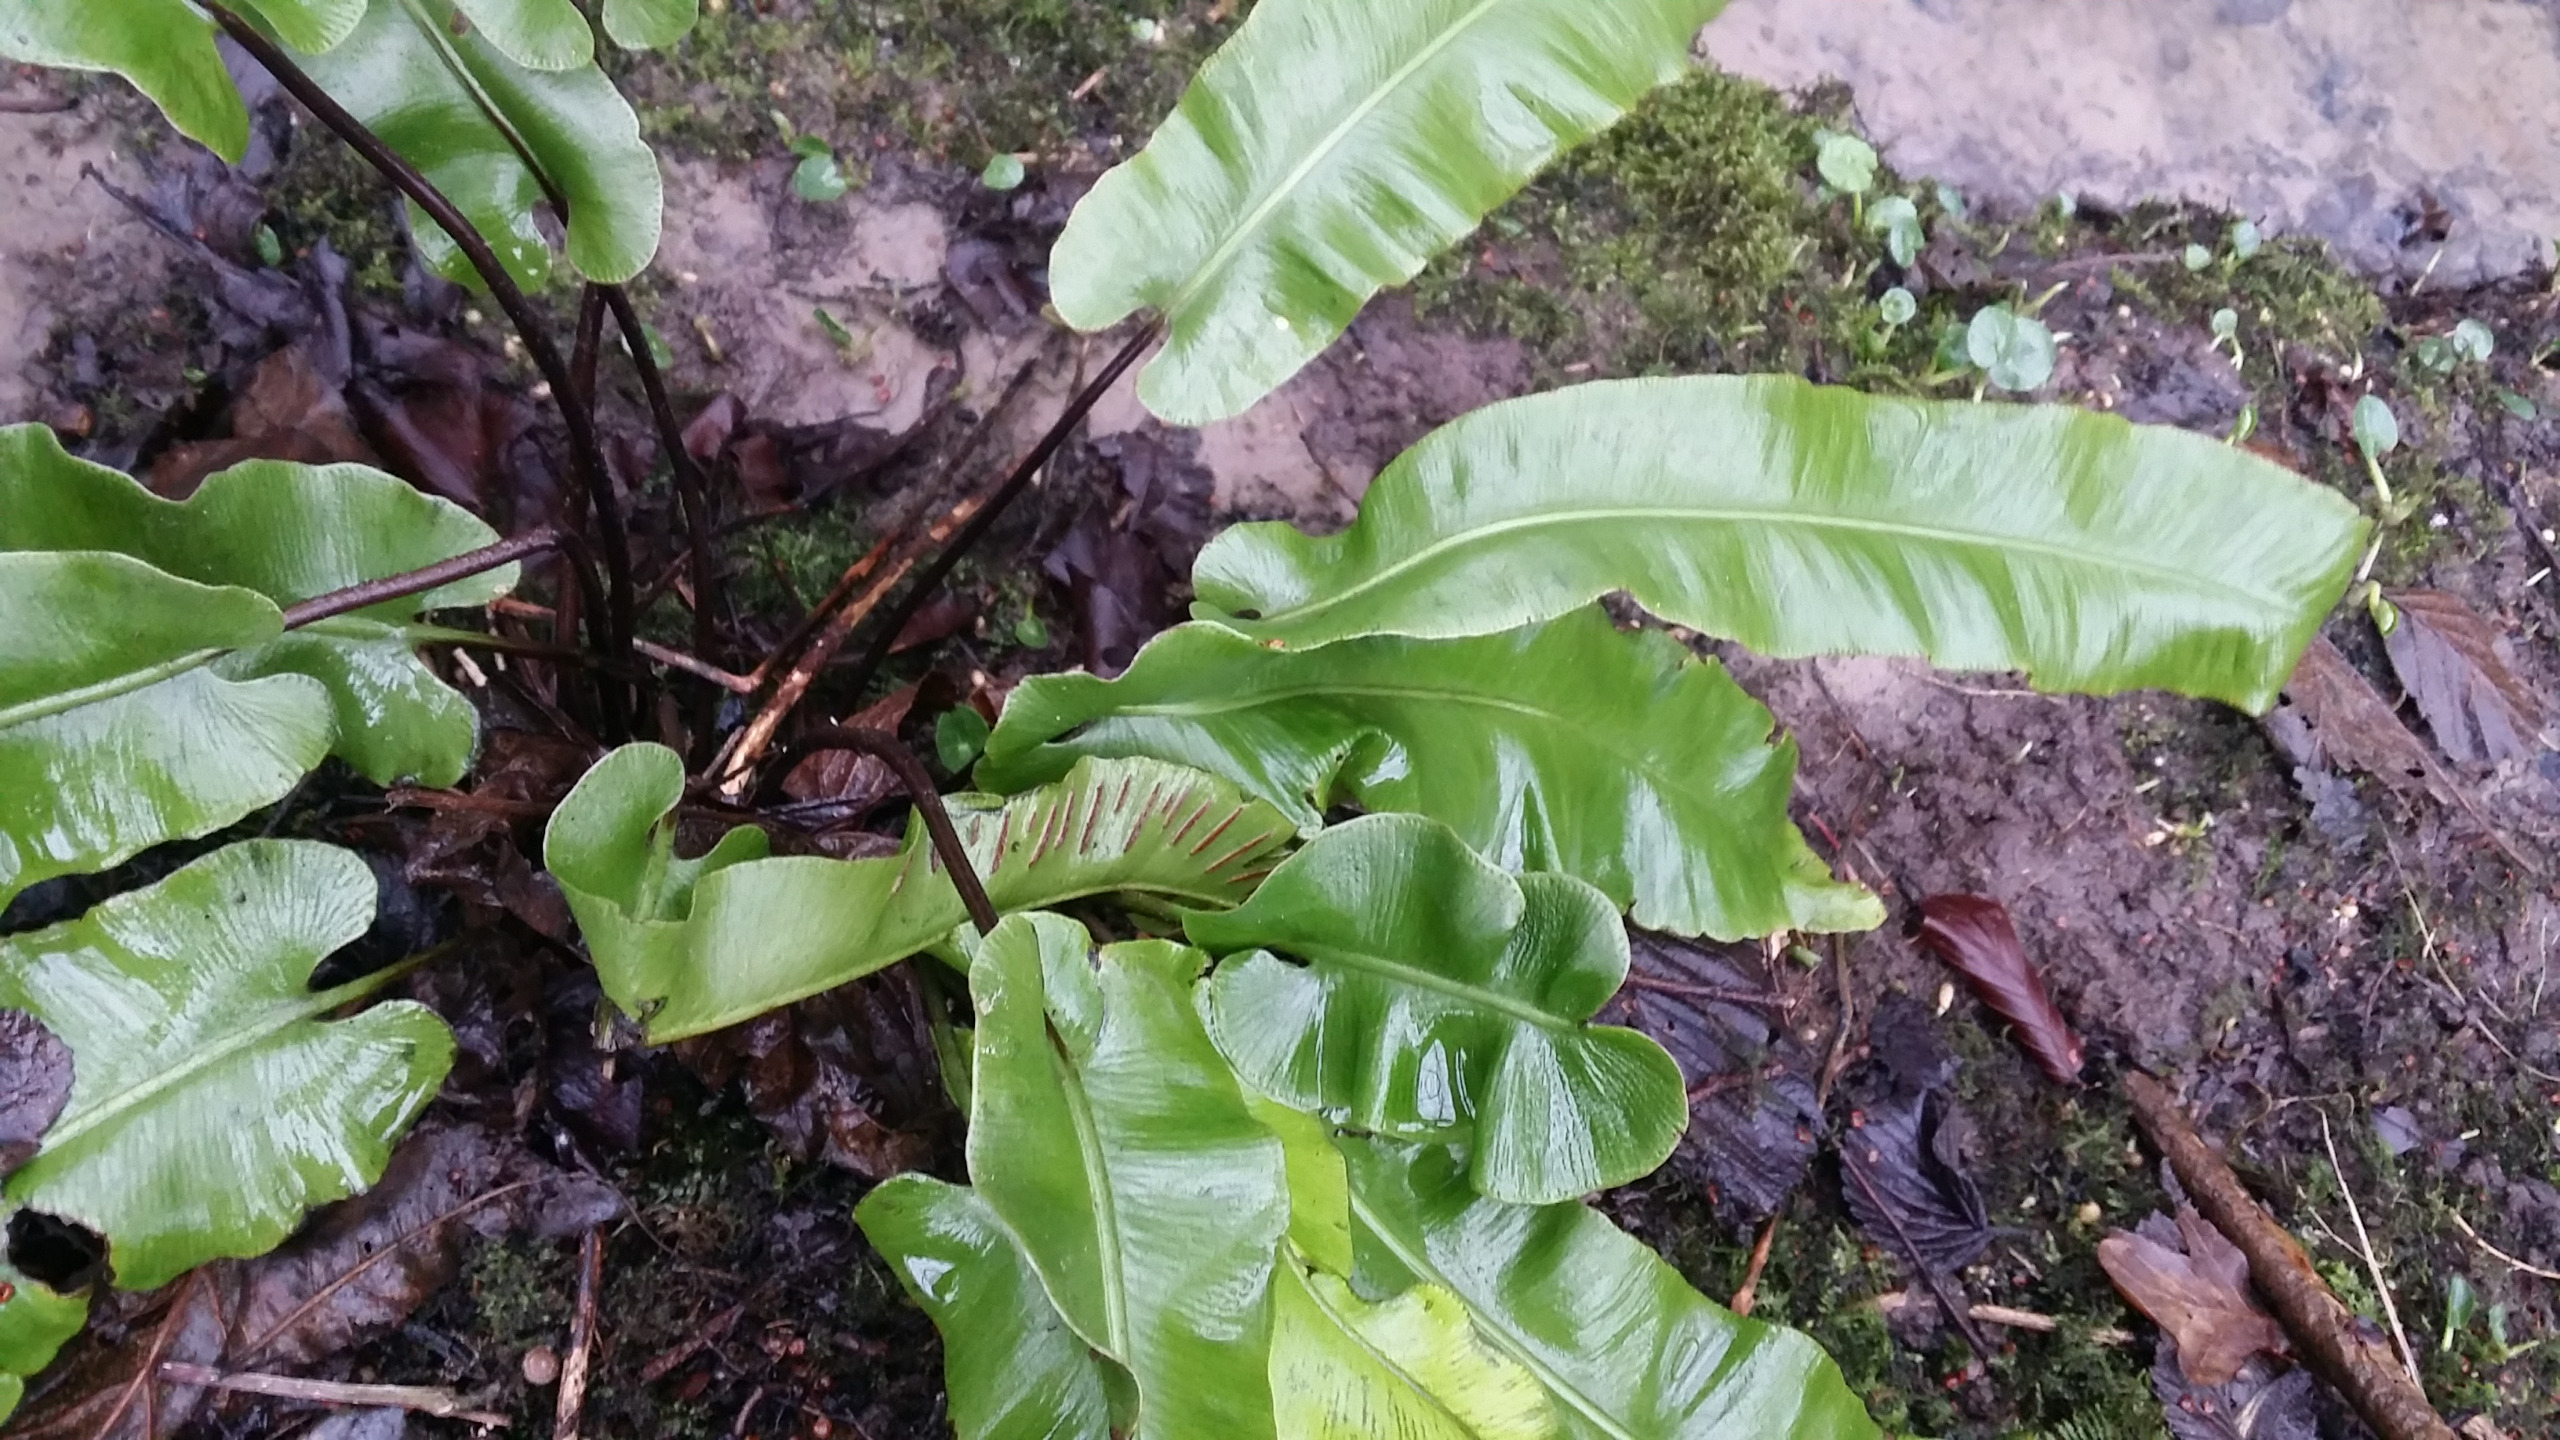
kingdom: Plantae
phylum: Tracheophyta
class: Polypodiopsida
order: Polypodiales
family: Aspleniaceae
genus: Asplenium
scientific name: Asplenium scolopendrium
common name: Hjortetunge
